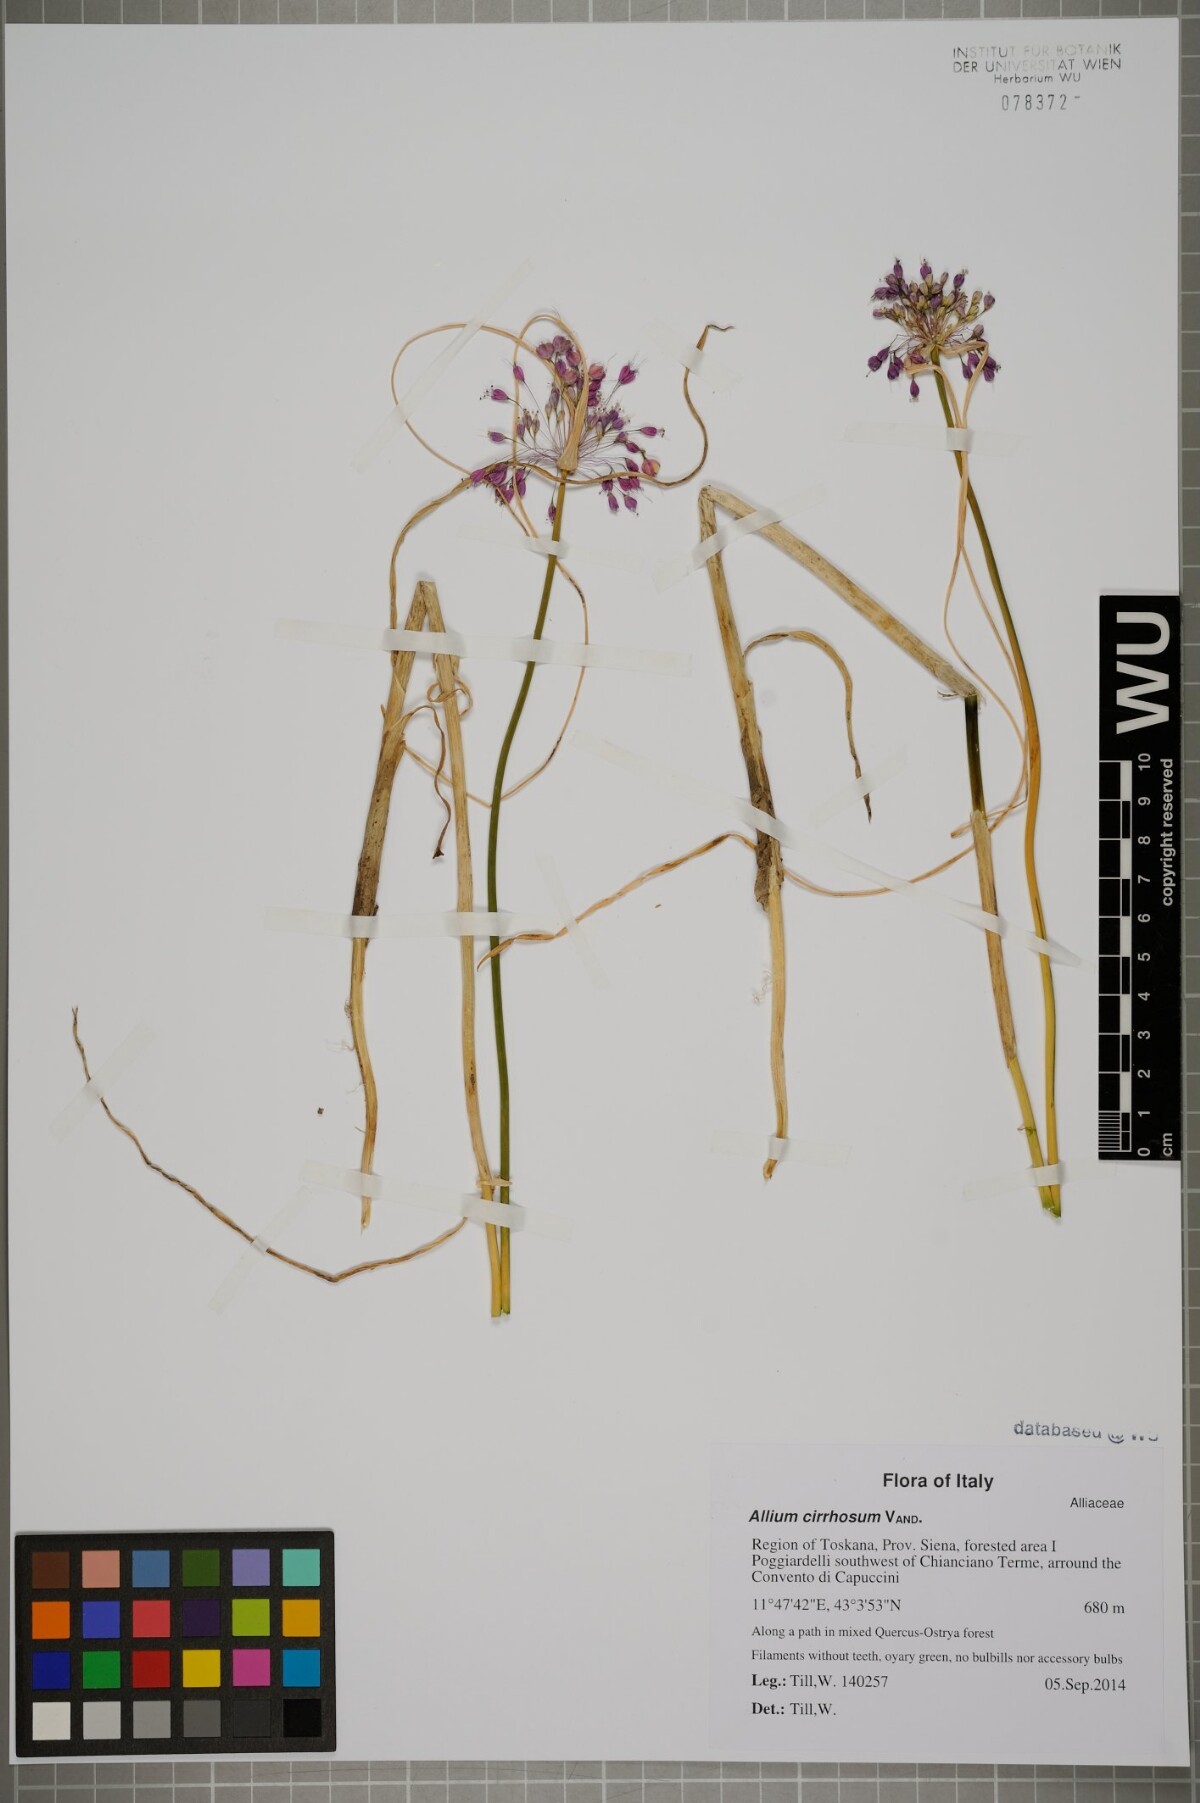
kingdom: Plantae
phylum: Tracheophyta
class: Liliopsida
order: Asparagales
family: Amaryllidaceae
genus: Allium
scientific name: Allium coloratum
